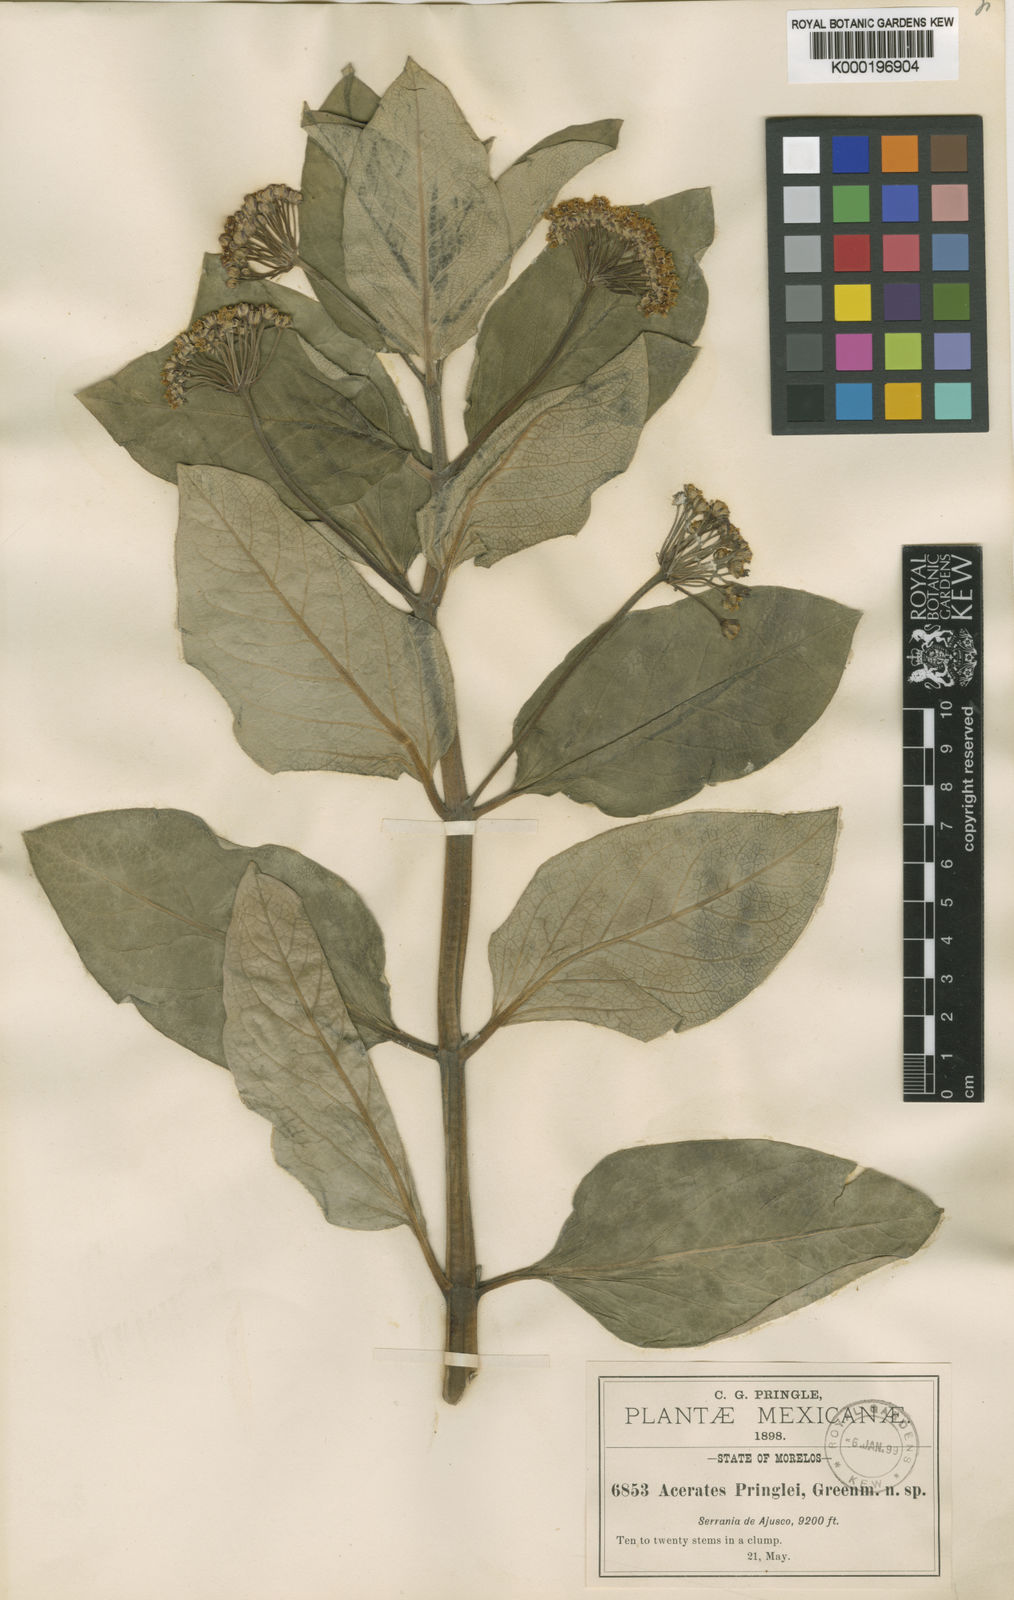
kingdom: Plantae
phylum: Tracheophyta
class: Magnoliopsida
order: Gentianales
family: Apocynaceae
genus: Asclepias
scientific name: Asclepias pringlei
